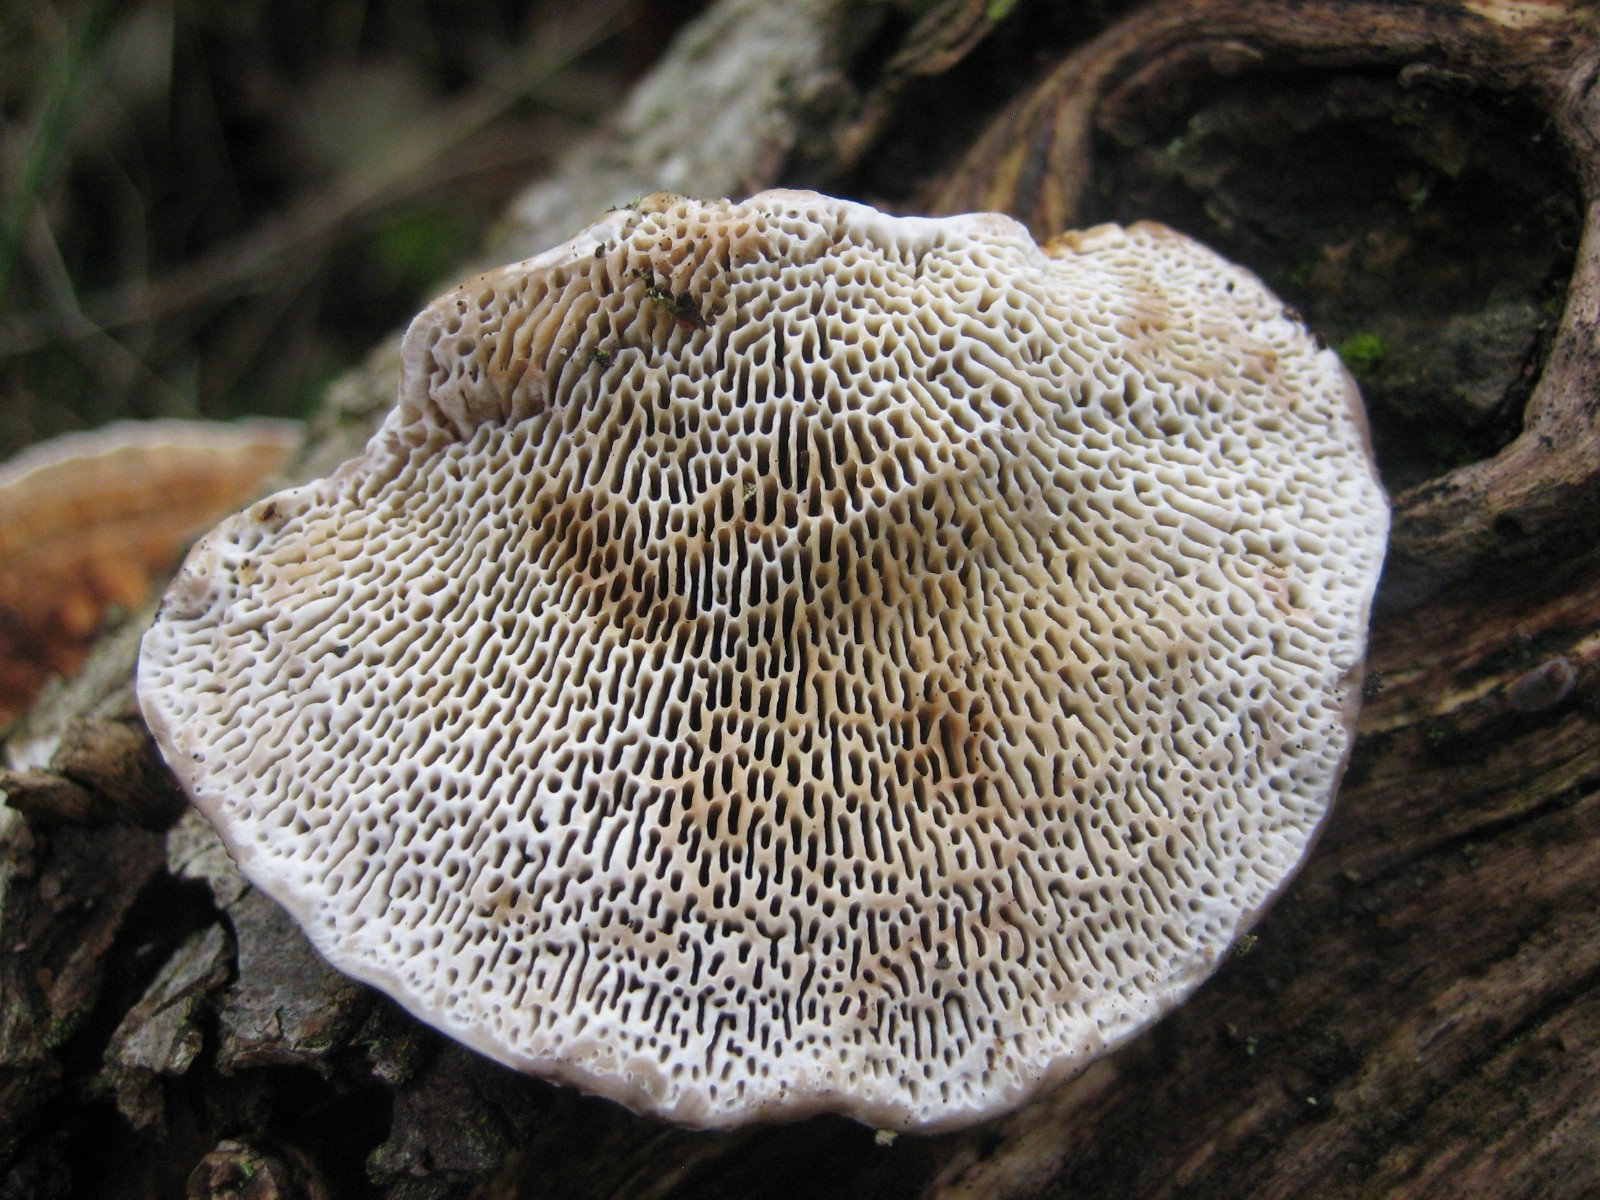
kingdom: Fungi
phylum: Basidiomycota
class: Agaricomycetes
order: Polyporales
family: Polyporaceae
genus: Daedaleopsis
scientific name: Daedaleopsis confragosa
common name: rødmende læderporesvamp
